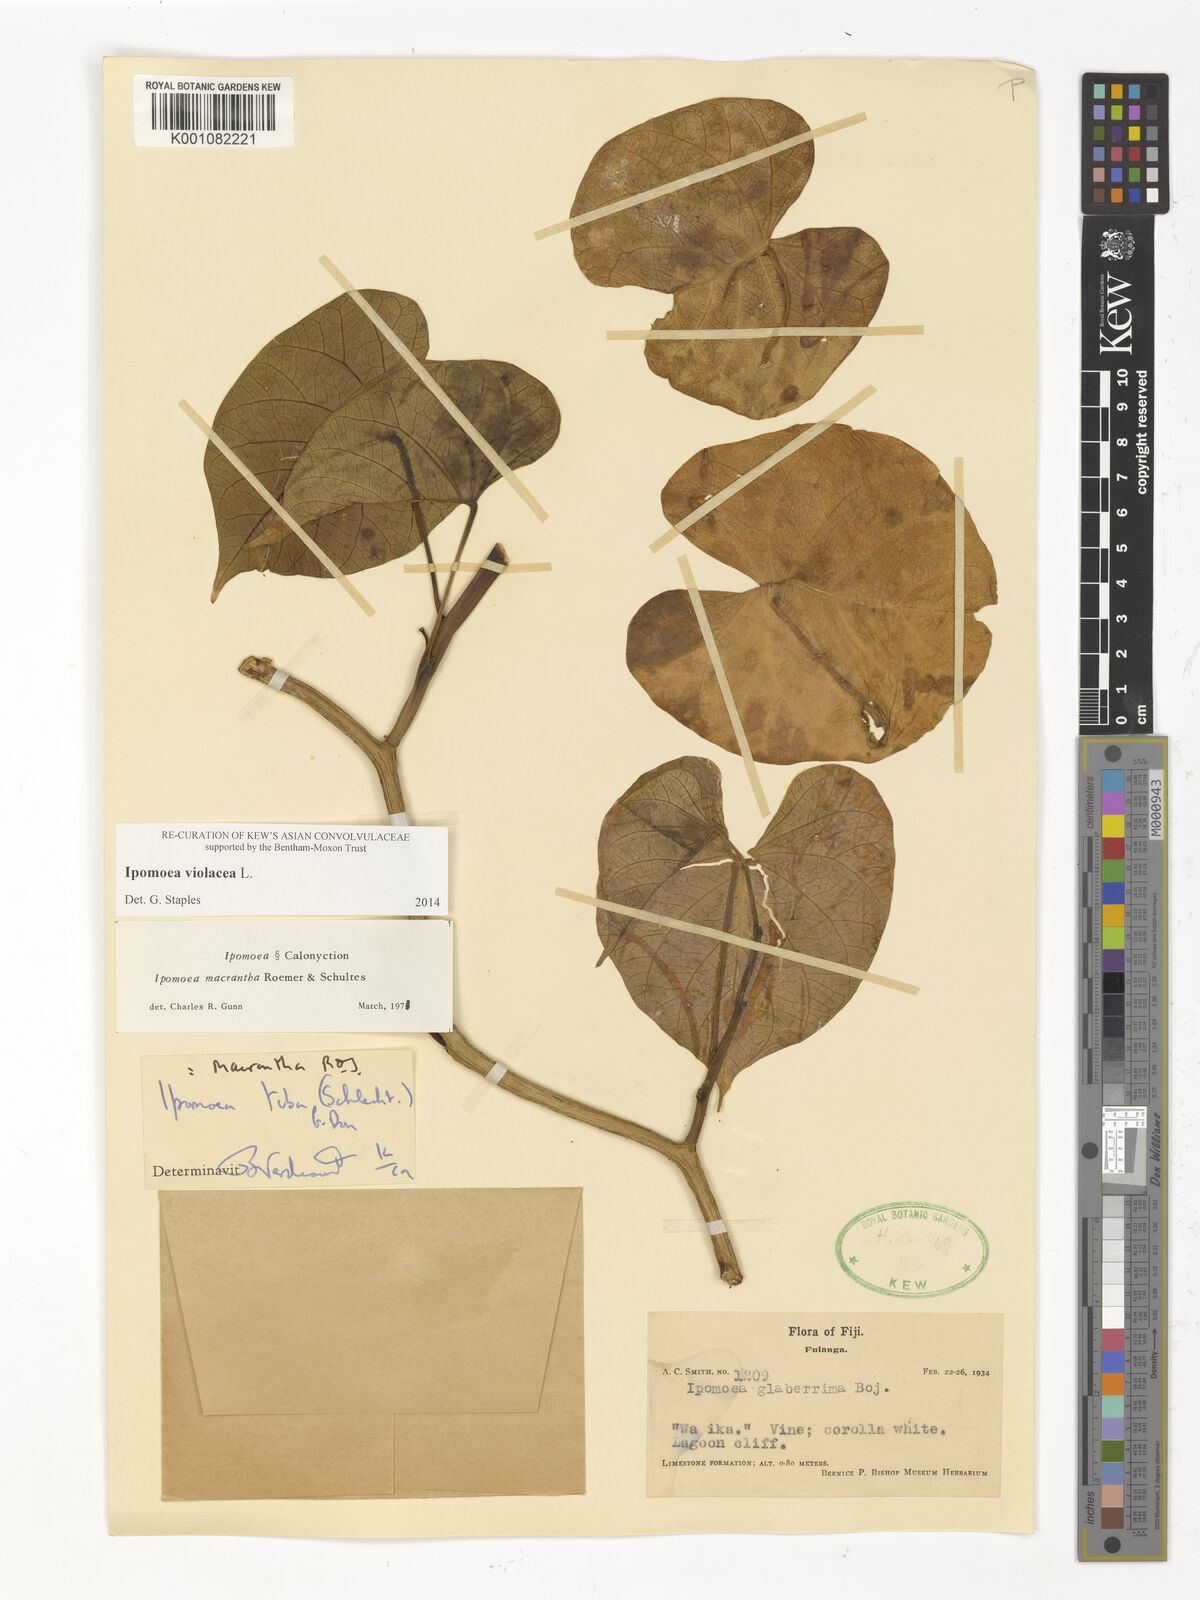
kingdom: Plantae
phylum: Tracheophyta
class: Magnoliopsida
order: Solanales
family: Convolvulaceae
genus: Ipomoea
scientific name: Ipomoea violacea
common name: Beach moonflower
